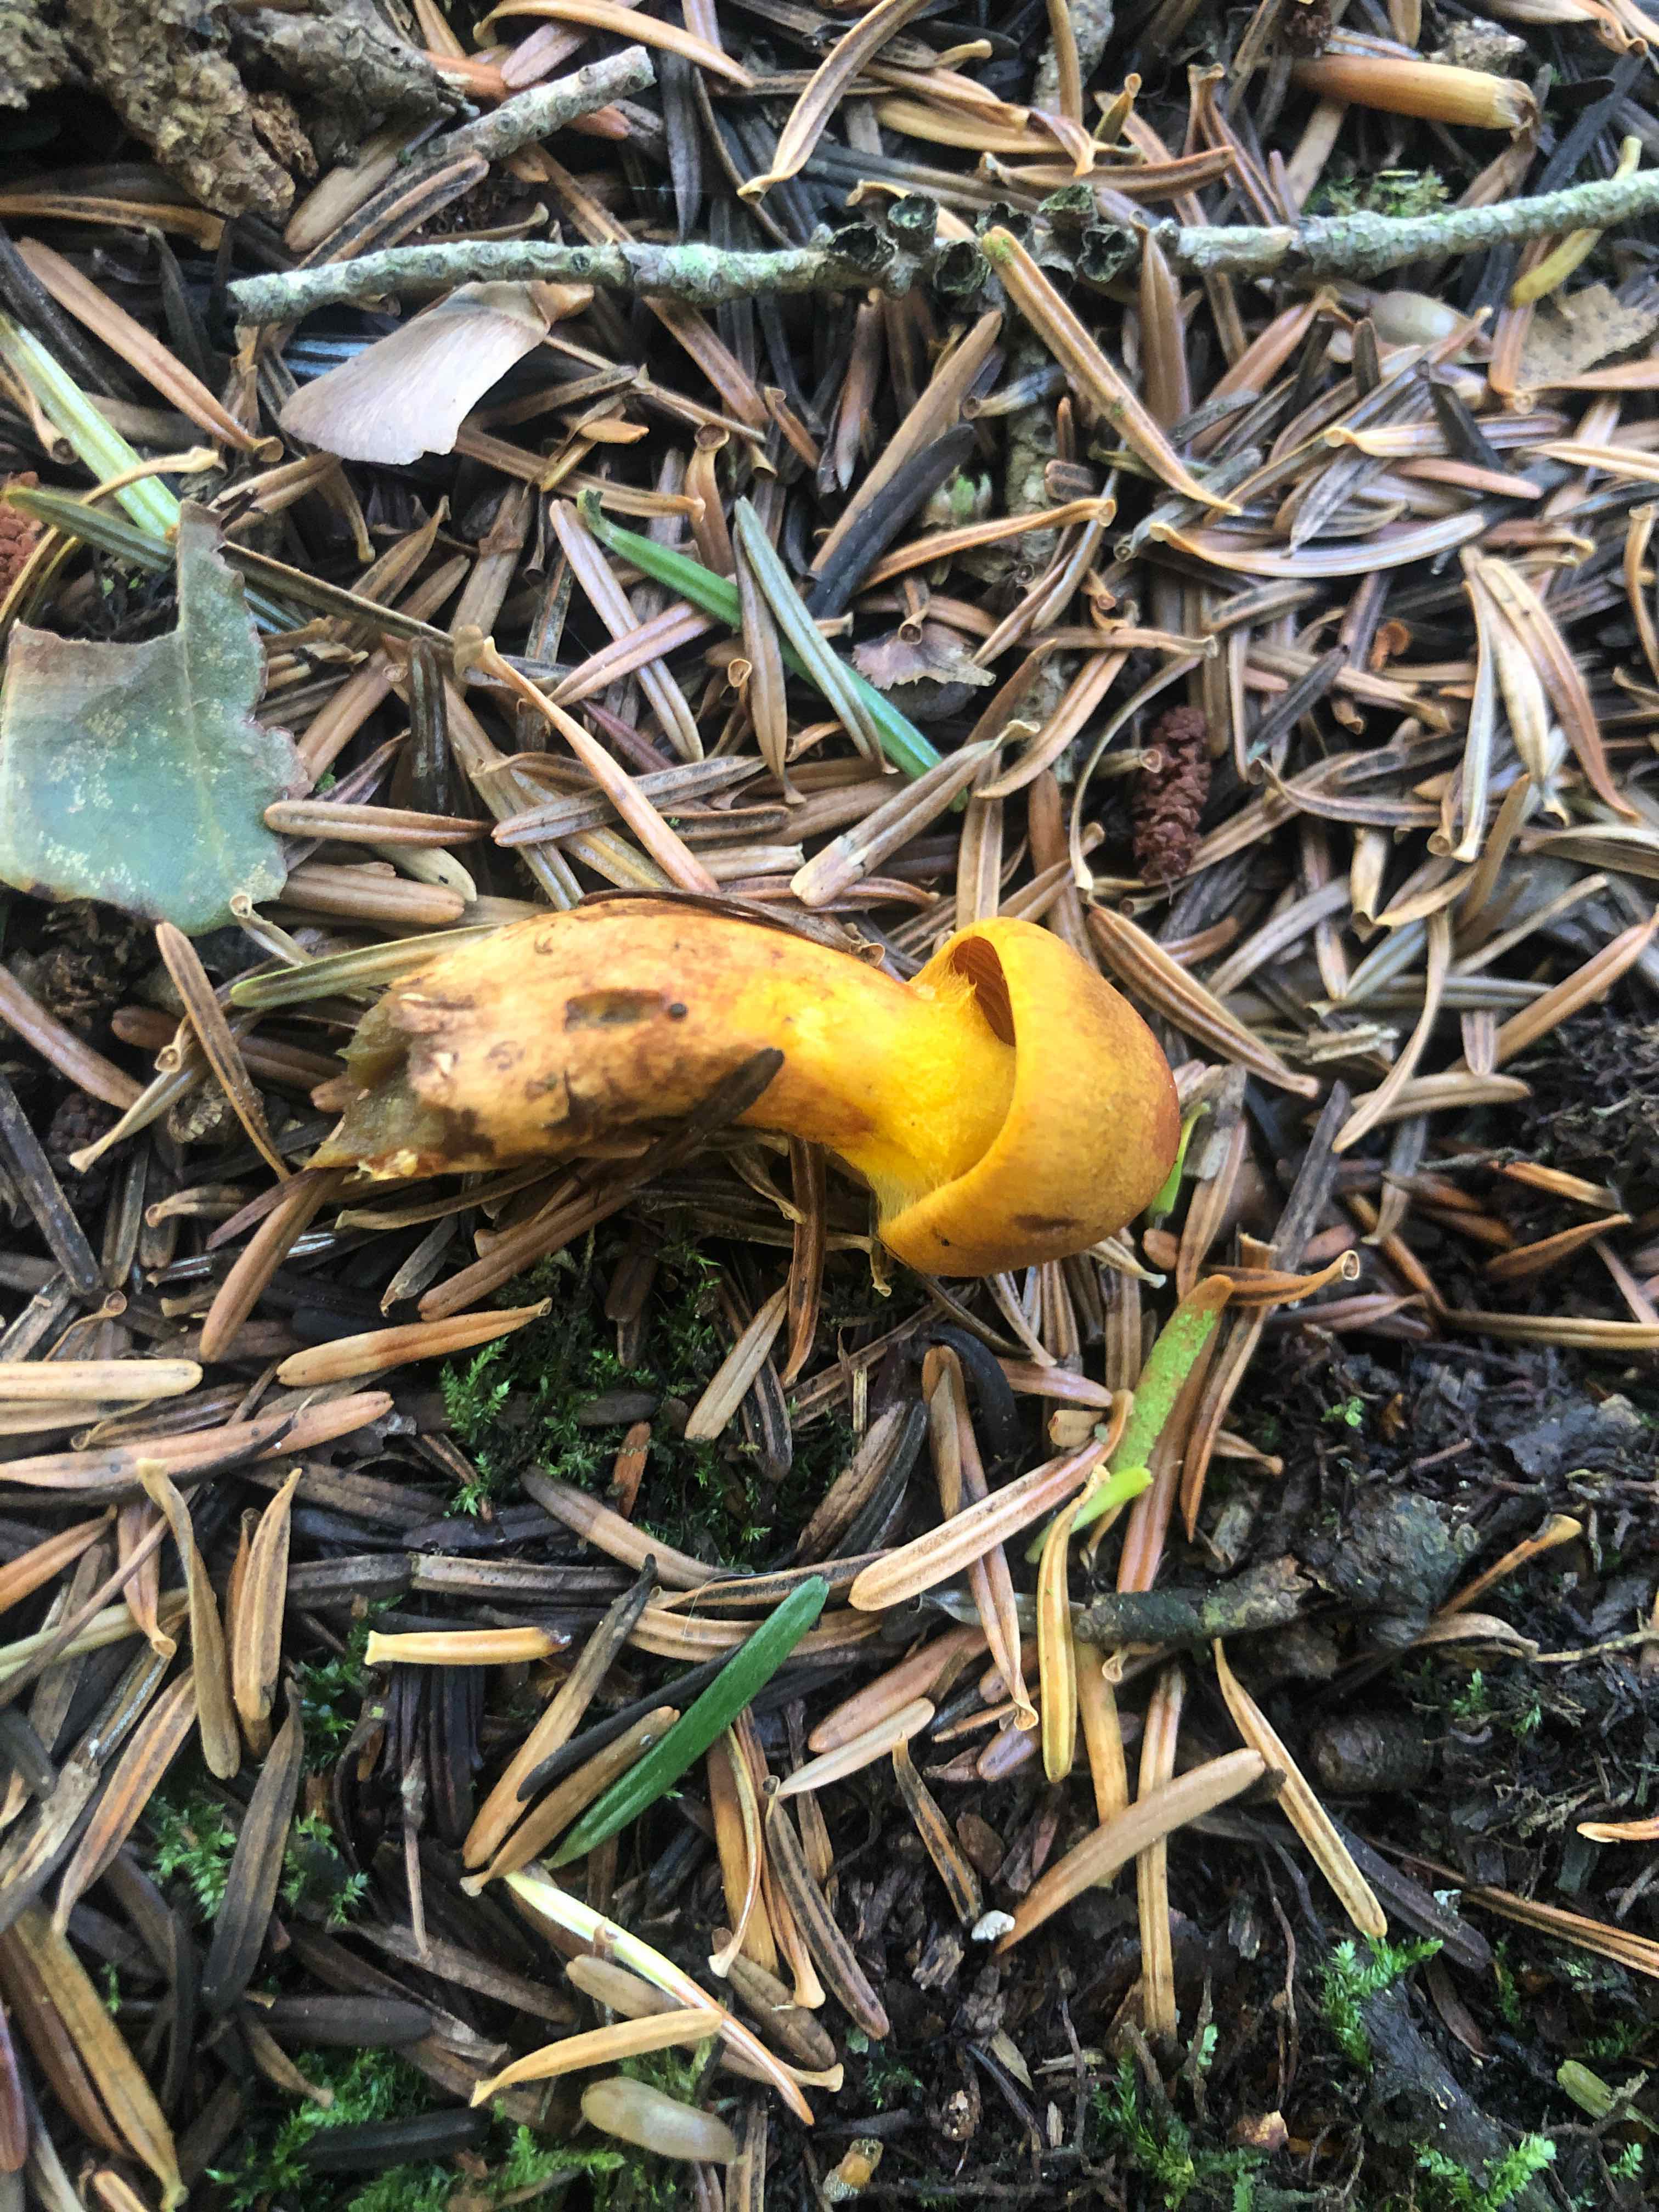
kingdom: Fungi
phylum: Basidiomycota
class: Agaricomycetes
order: Agaricales
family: Cortinariaceae
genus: Cortinarius
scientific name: Cortinarius malicorius
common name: grønkødet slørhat
